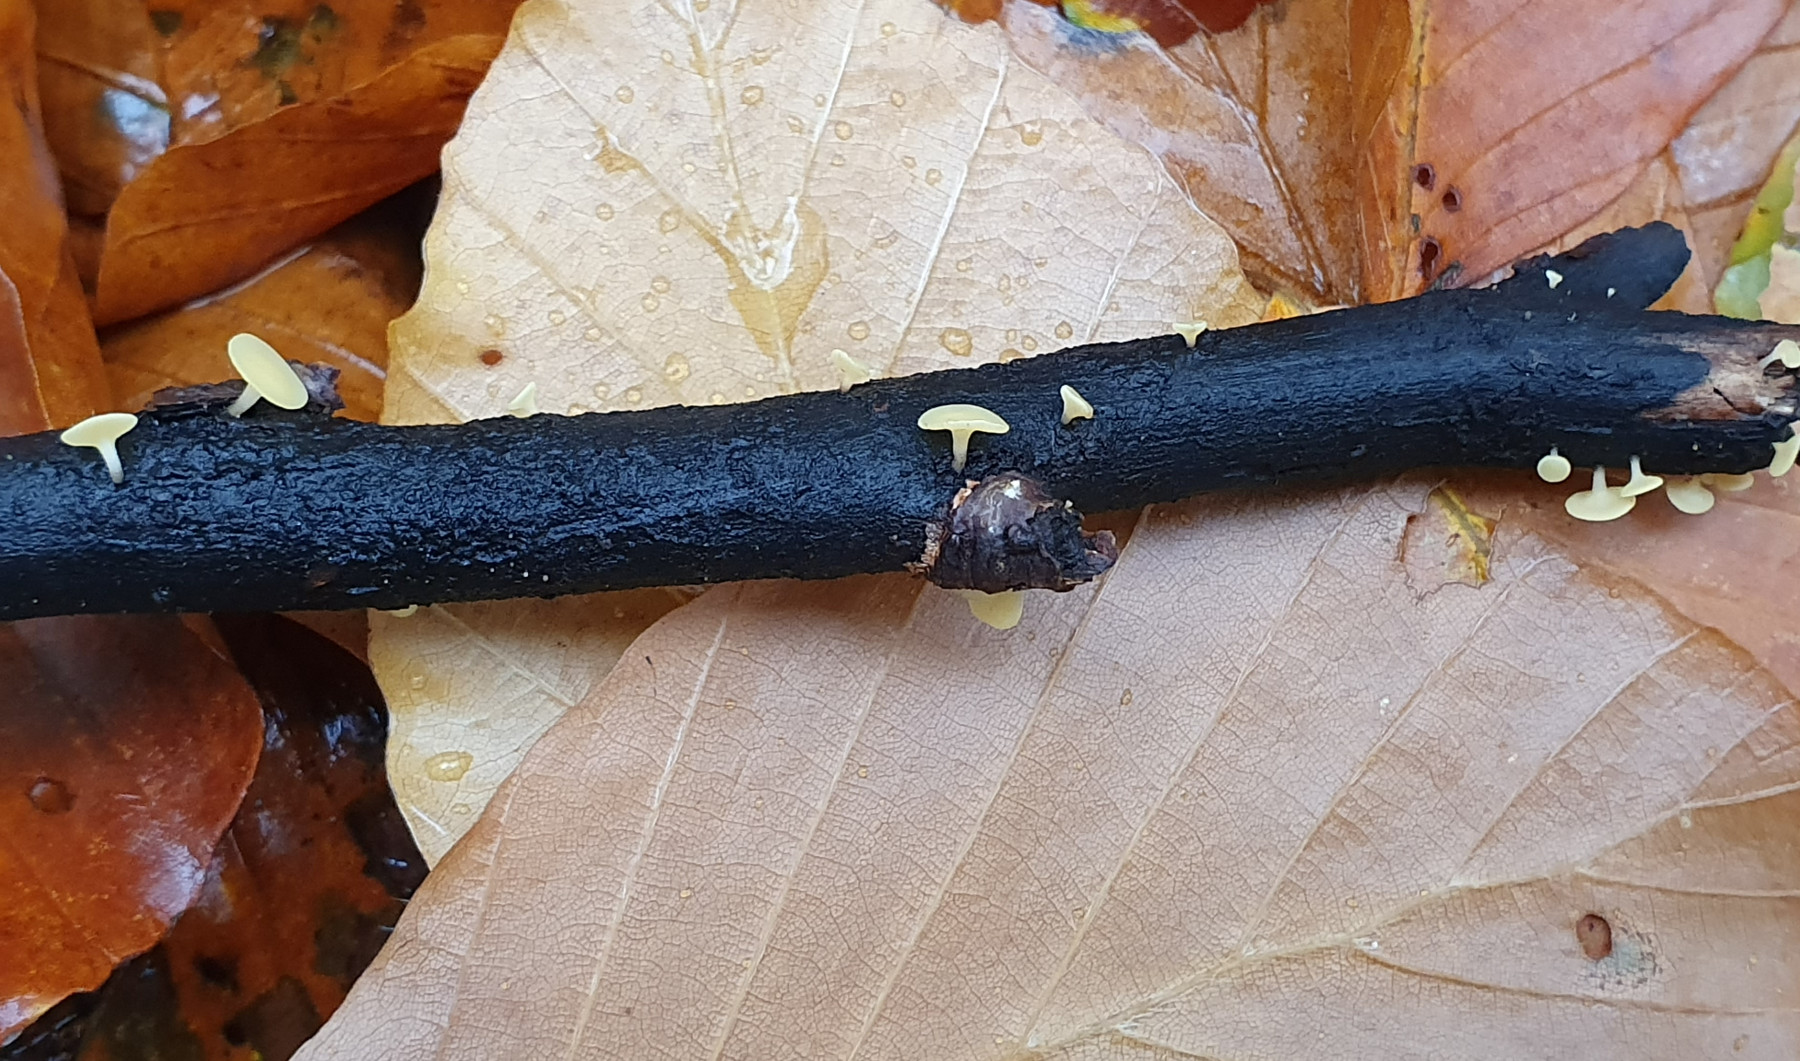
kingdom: Fungi
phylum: Ascomycota
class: Leotiomycetes
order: Helotiales
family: Helotiaceae
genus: Hymenoscyphus
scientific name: Hymenoscyphus serotinus
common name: krumsporet stilkskive
